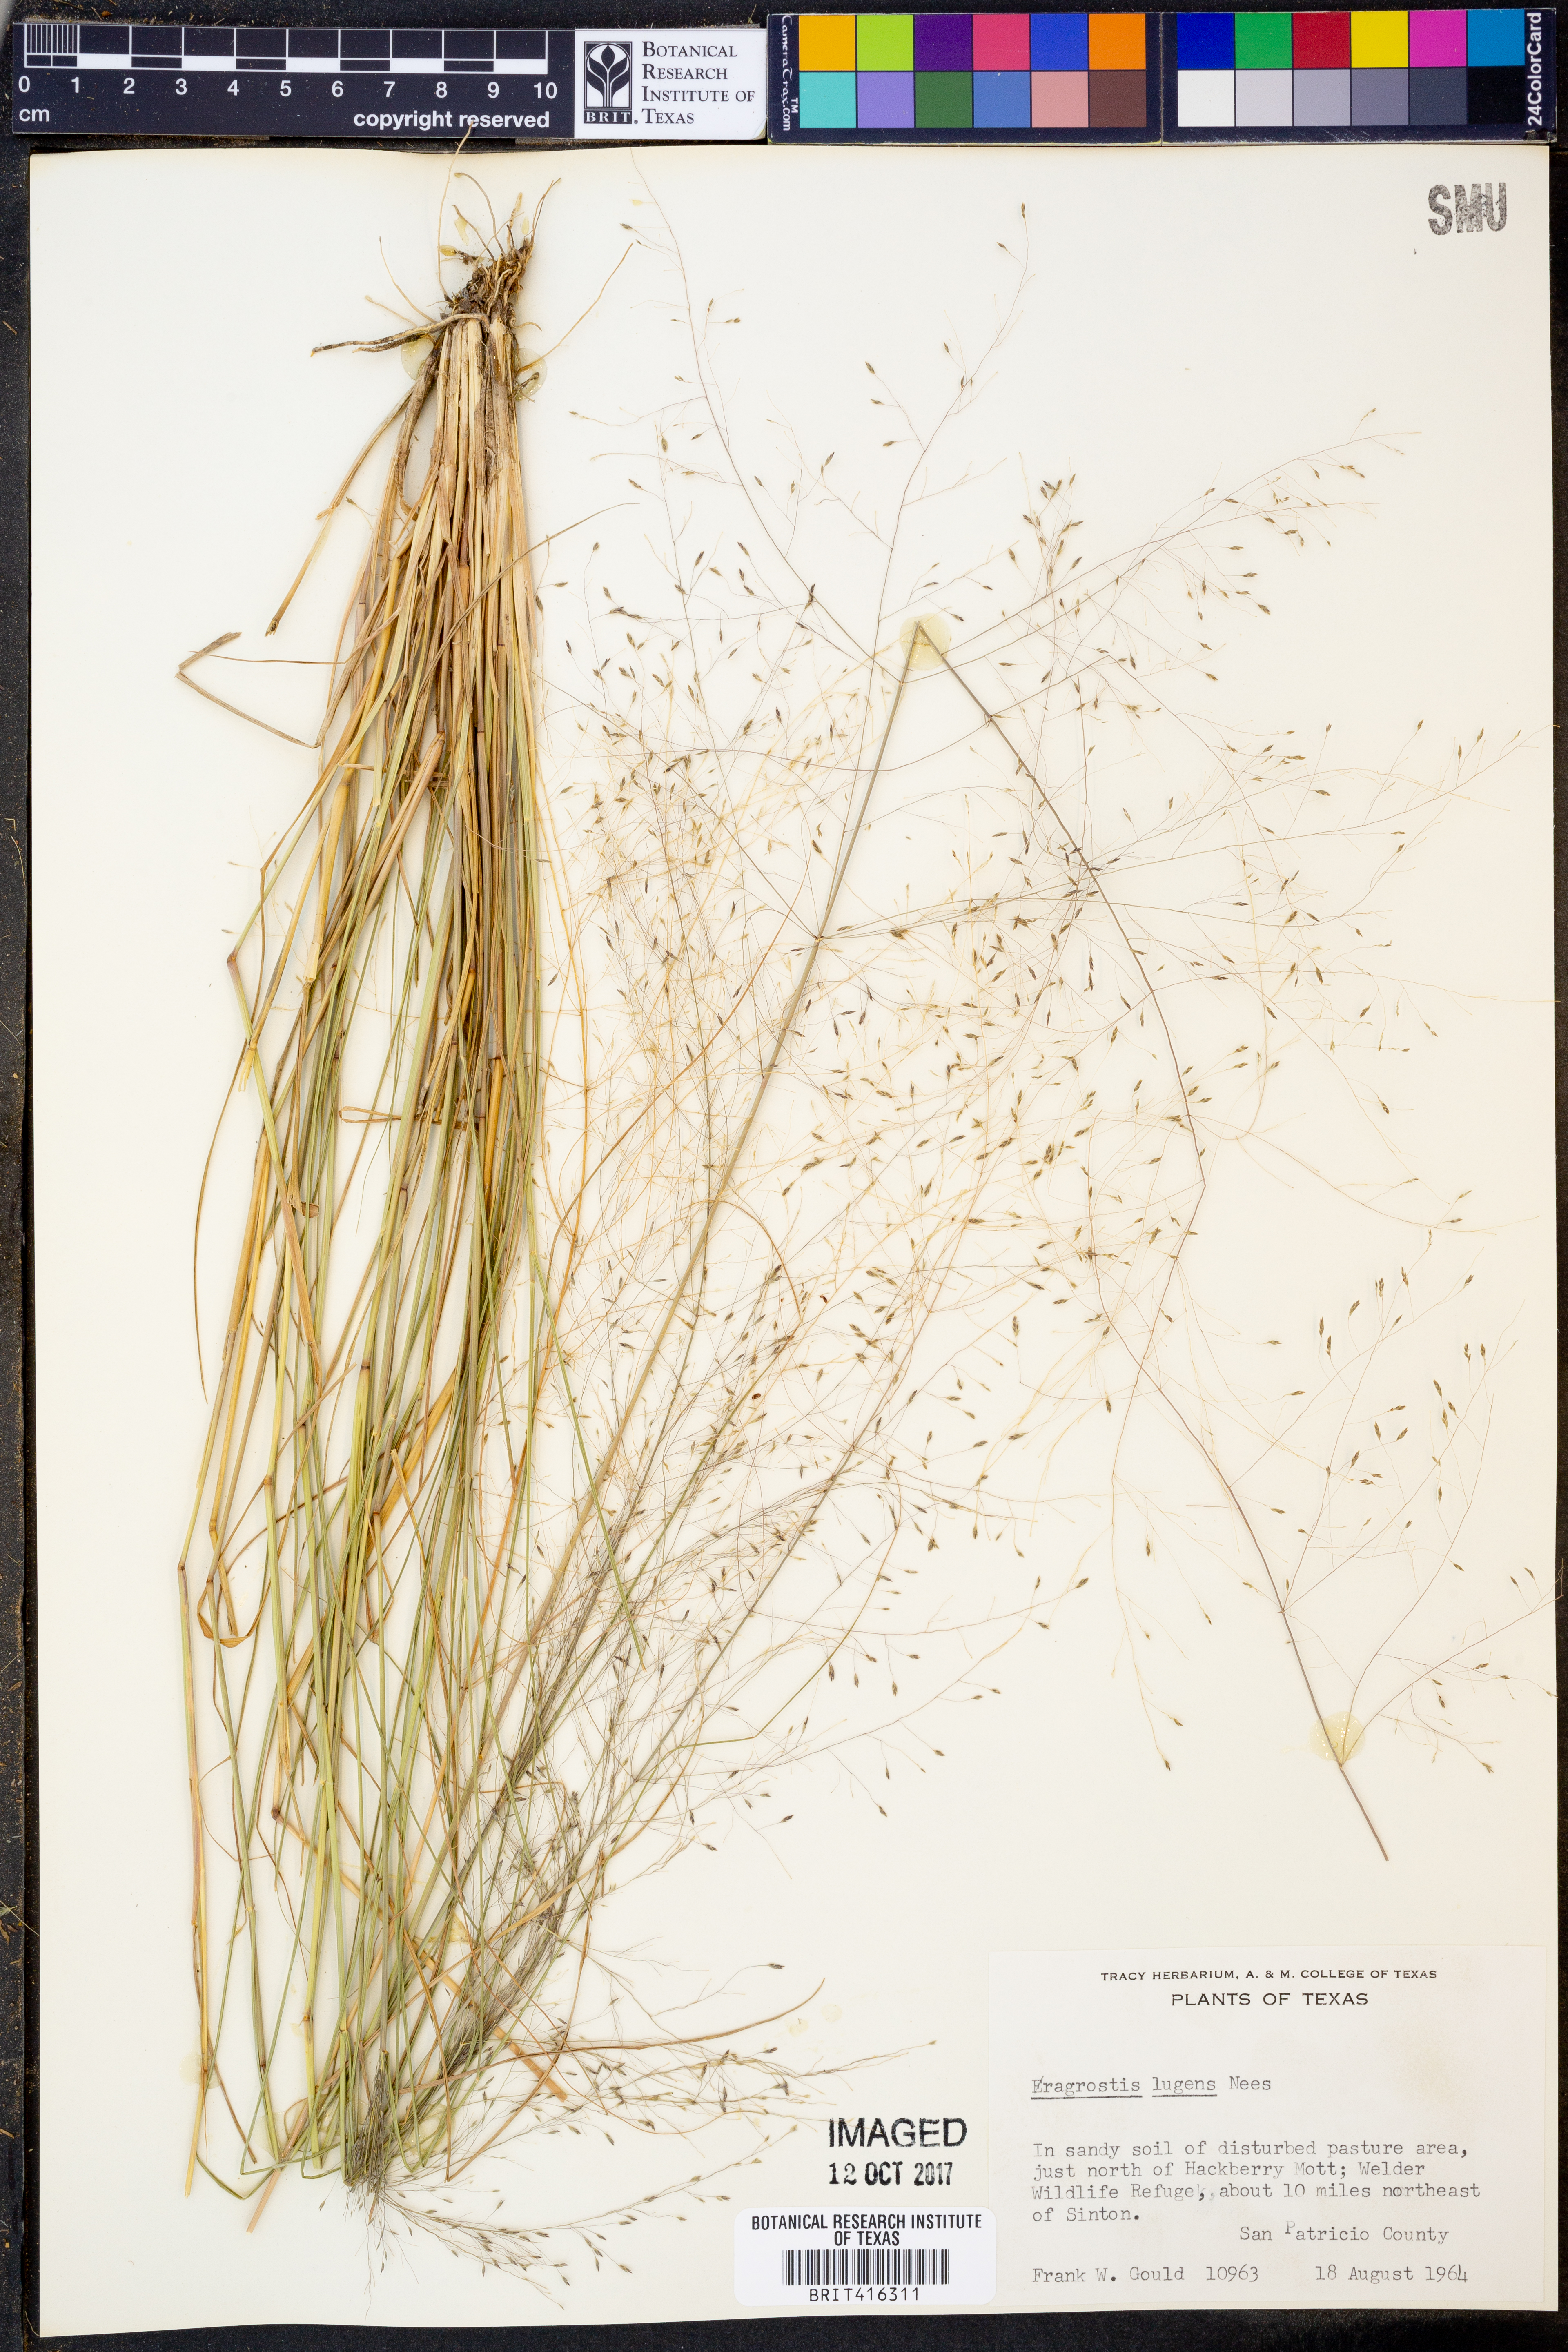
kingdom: Plantae
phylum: Tracheophyta
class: Liliopsida
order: Poales
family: Poaceae
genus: Eragrostis
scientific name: Eragrostis capillaris
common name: Hair-like lovegrass
